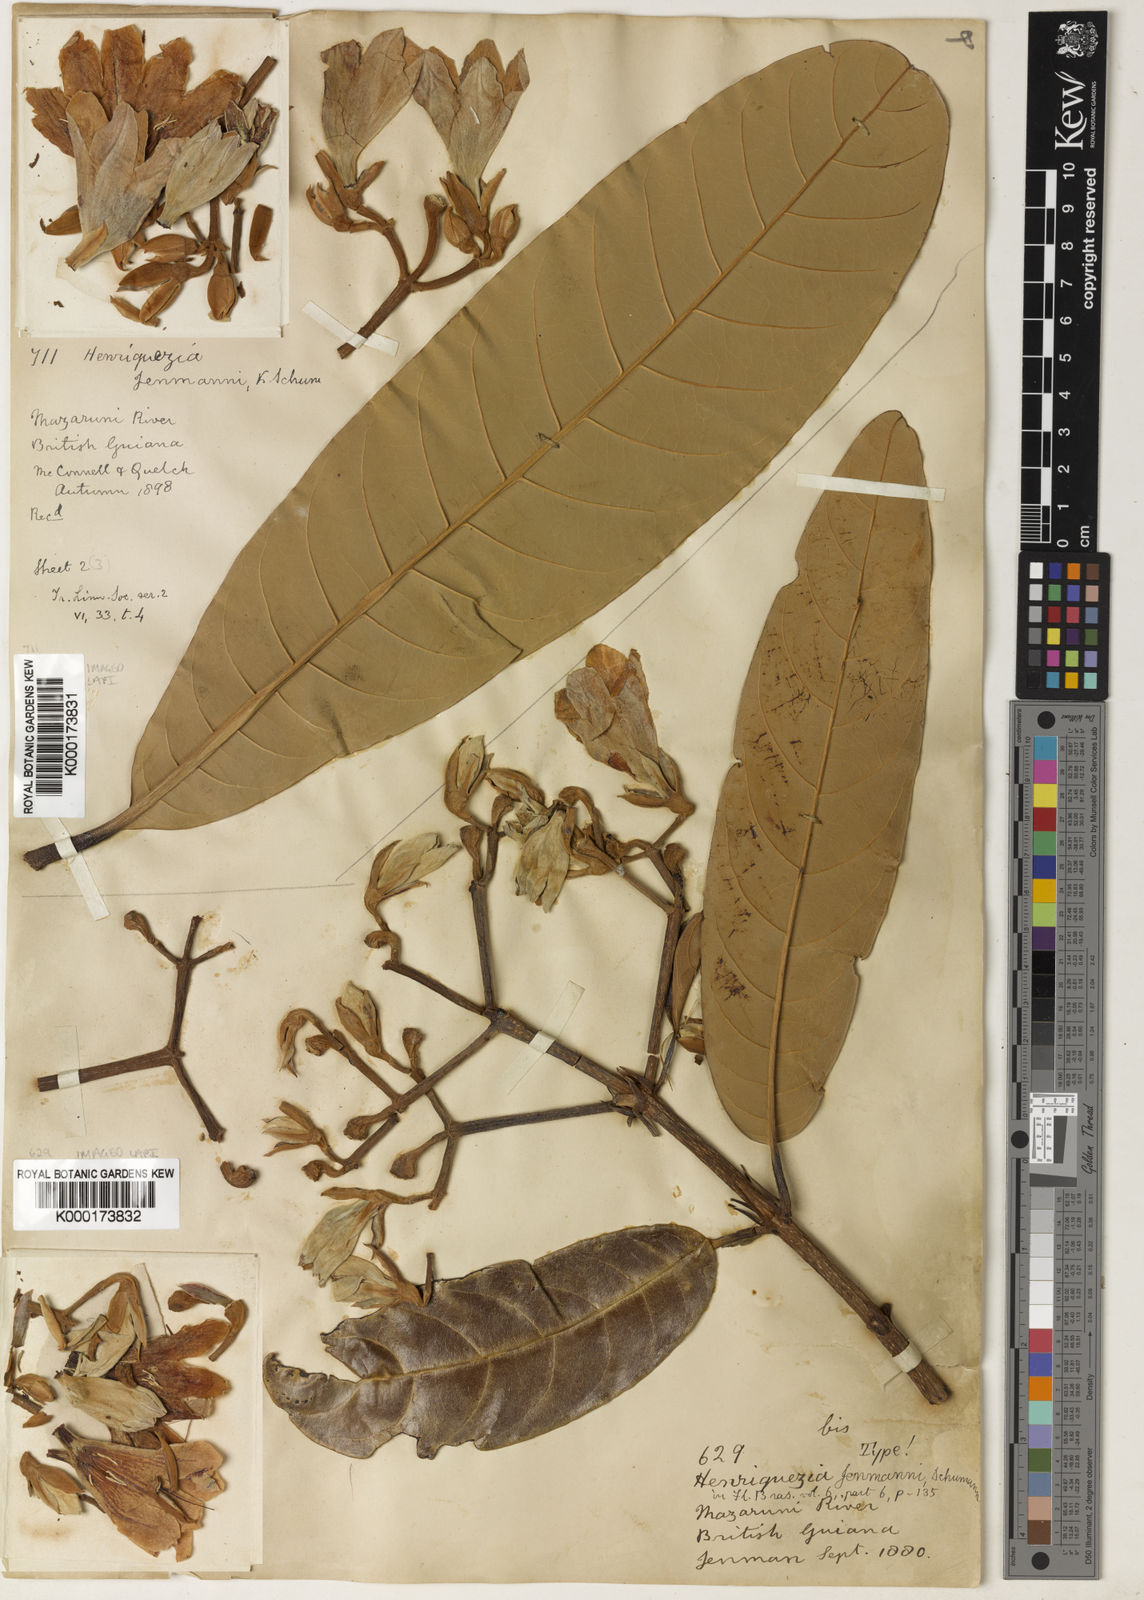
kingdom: Plantae
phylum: Tracheophyta
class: Magnoliopsida
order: Gentianales
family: Rubiaceae
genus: Henriquezia
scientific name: Henriquezia jenmanii
